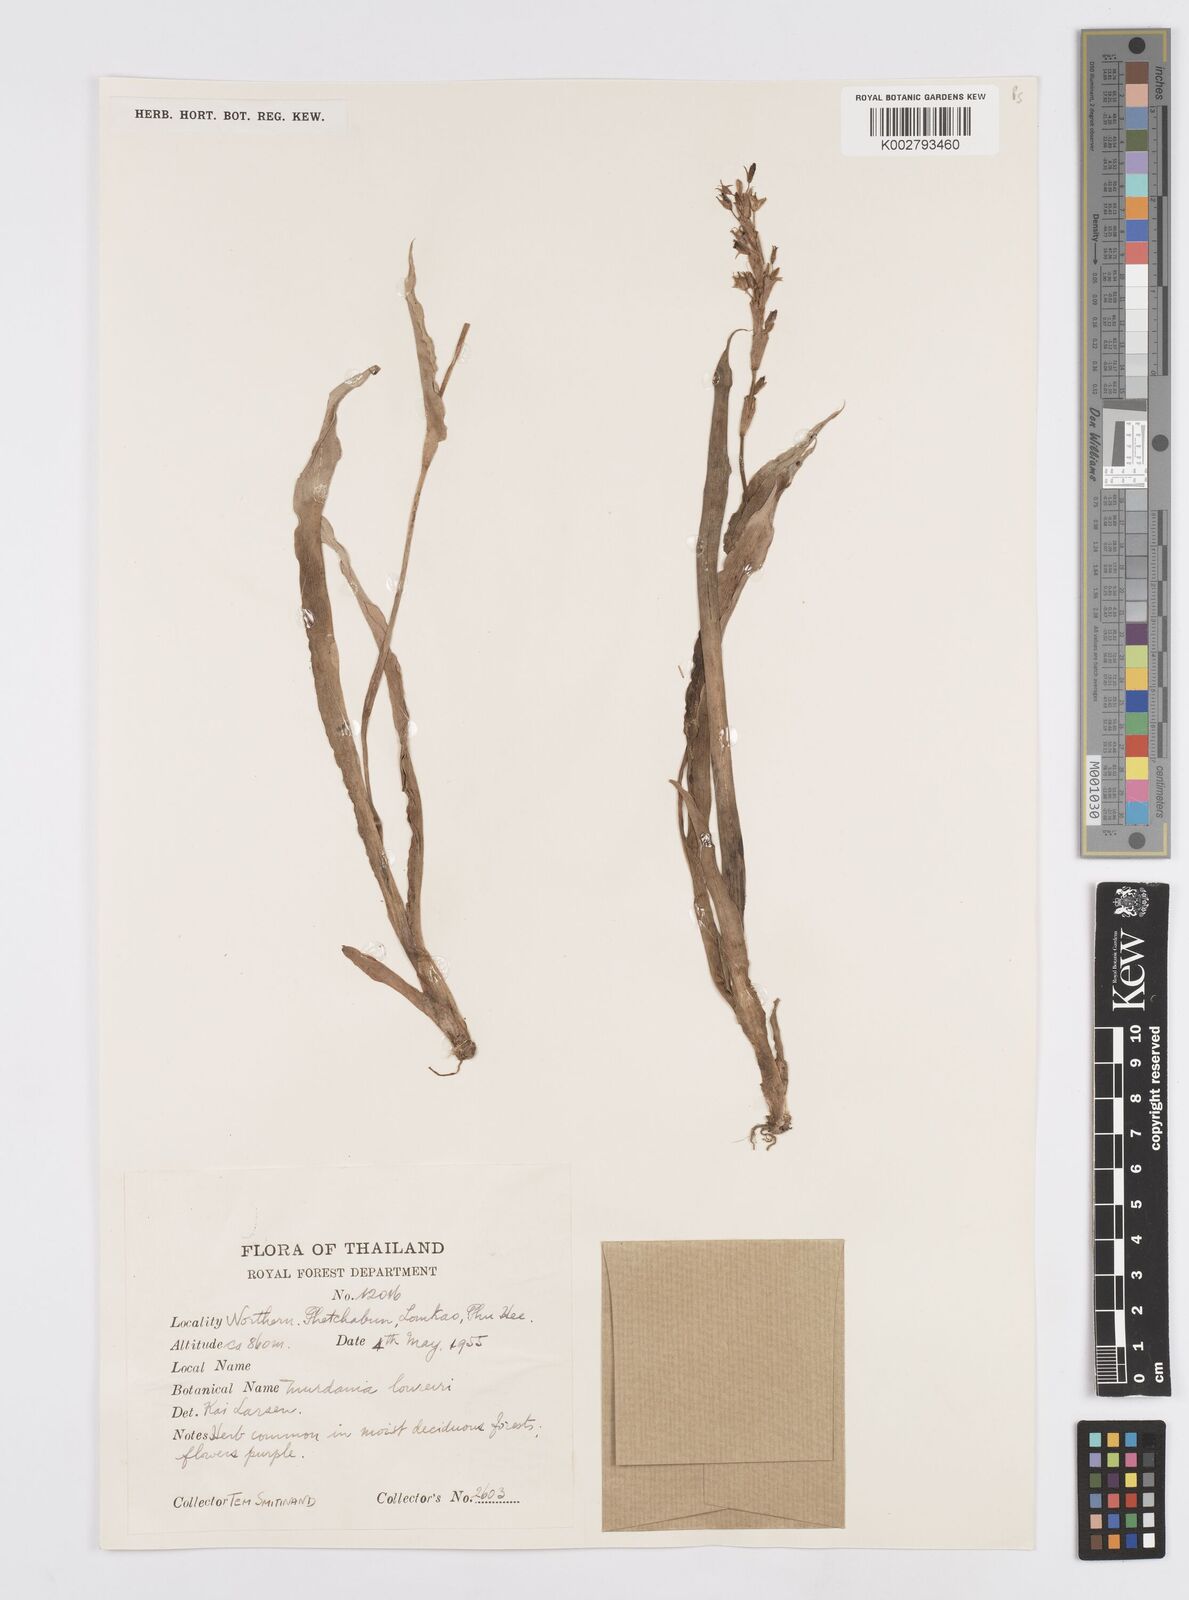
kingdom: Plantae
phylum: Tracheophyta
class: Liliopsida
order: Commelinales
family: Commelinaceae
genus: Murdannia
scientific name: Murdannia edulis
